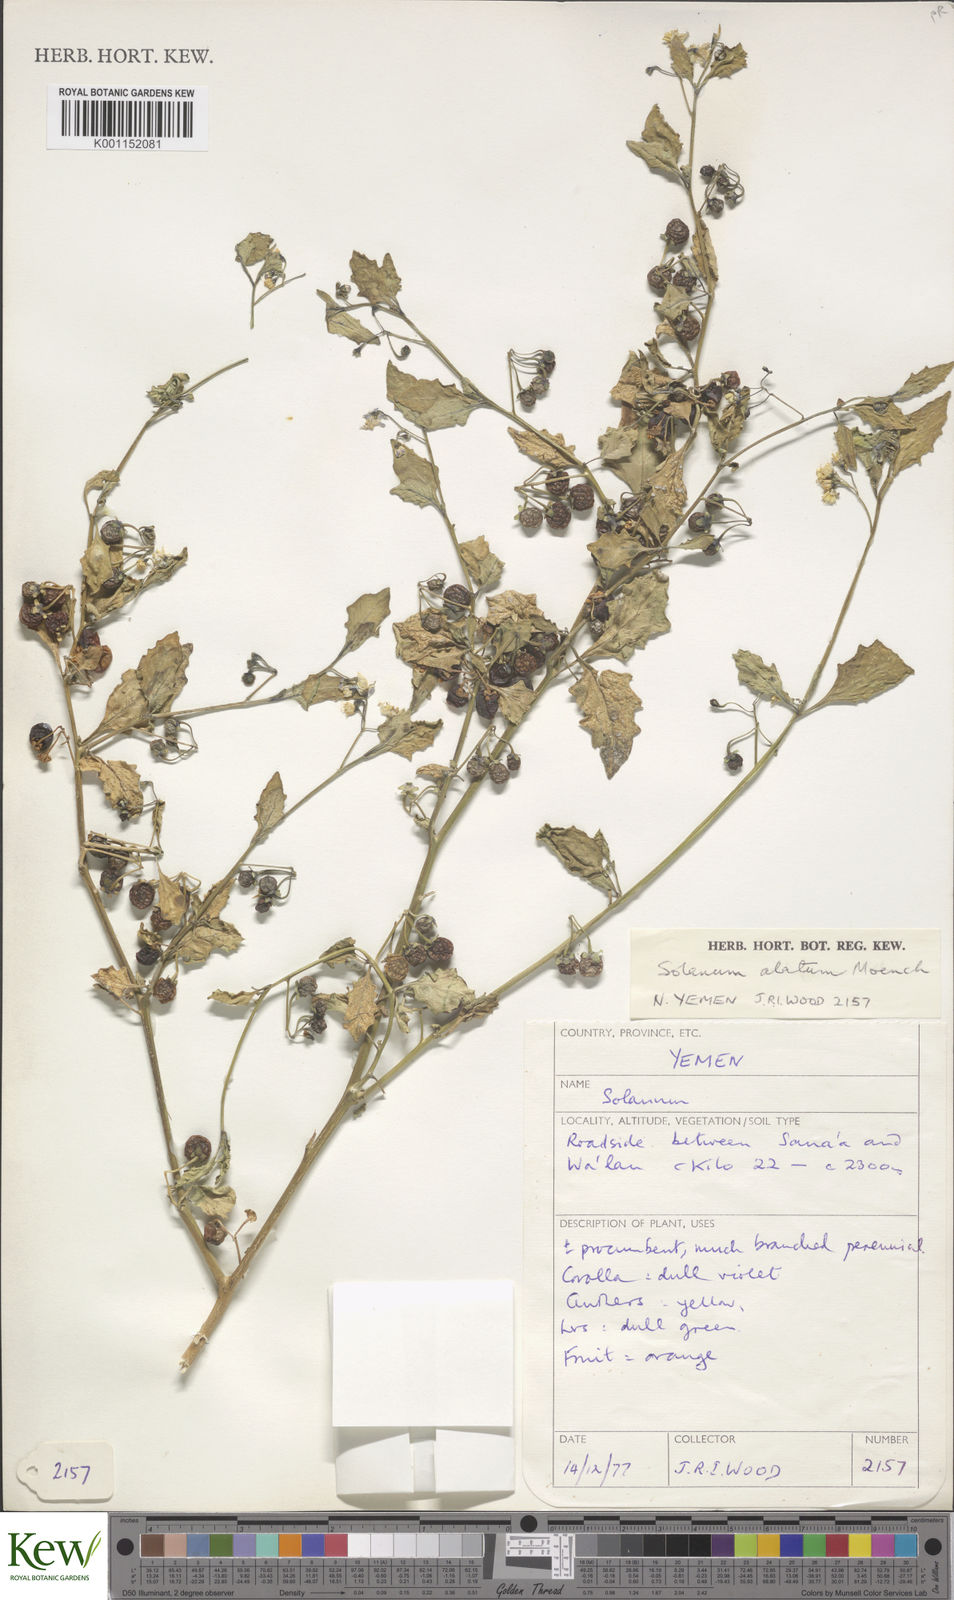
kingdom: Plantae
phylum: Tracheophyta
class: Magnoliopsida
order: Solanales
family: Solanaceae
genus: Solanum
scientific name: Solanum villosum
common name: Red nightshade
